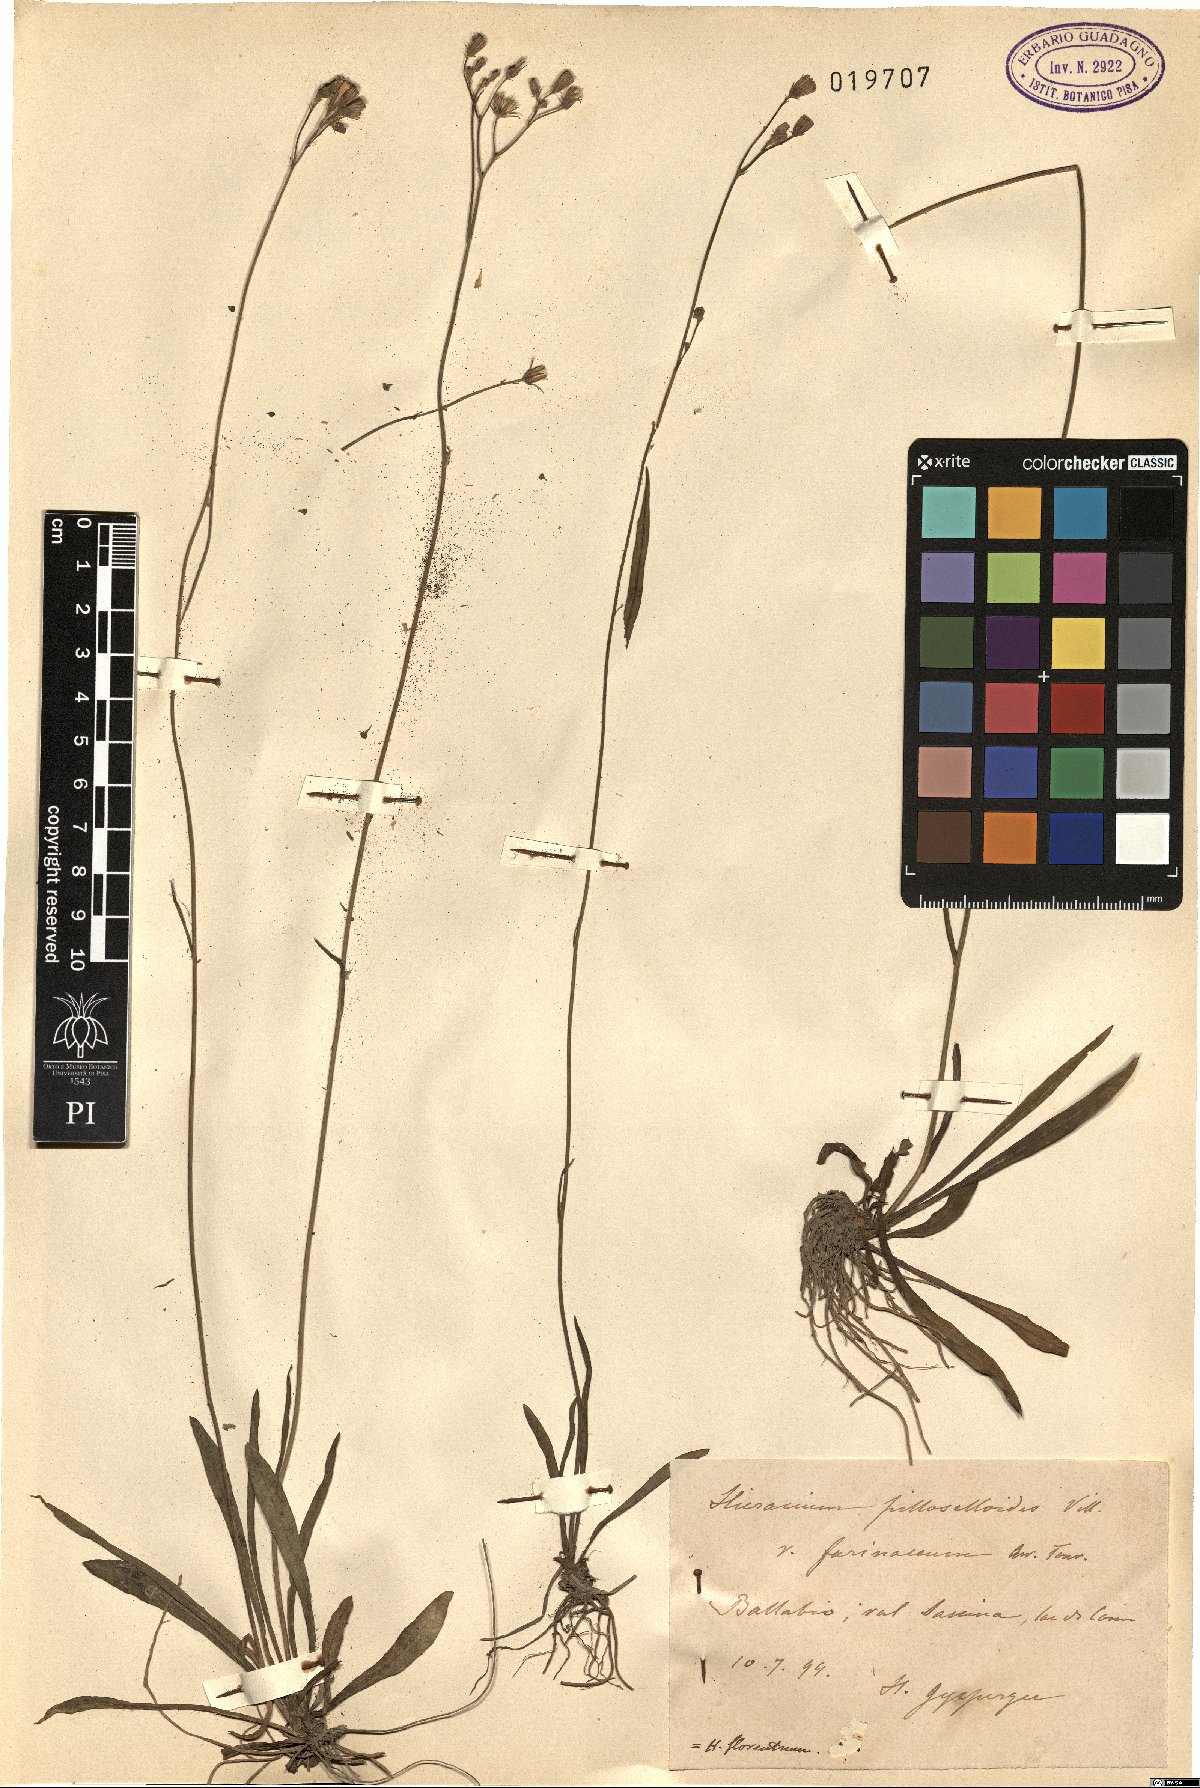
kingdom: Plantae
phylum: Tracheophyta
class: Magnoliopsida
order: Asterales
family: Asteraceae
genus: Pilosella
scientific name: Pilosella piloselloides
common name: Glaucous king-devil
